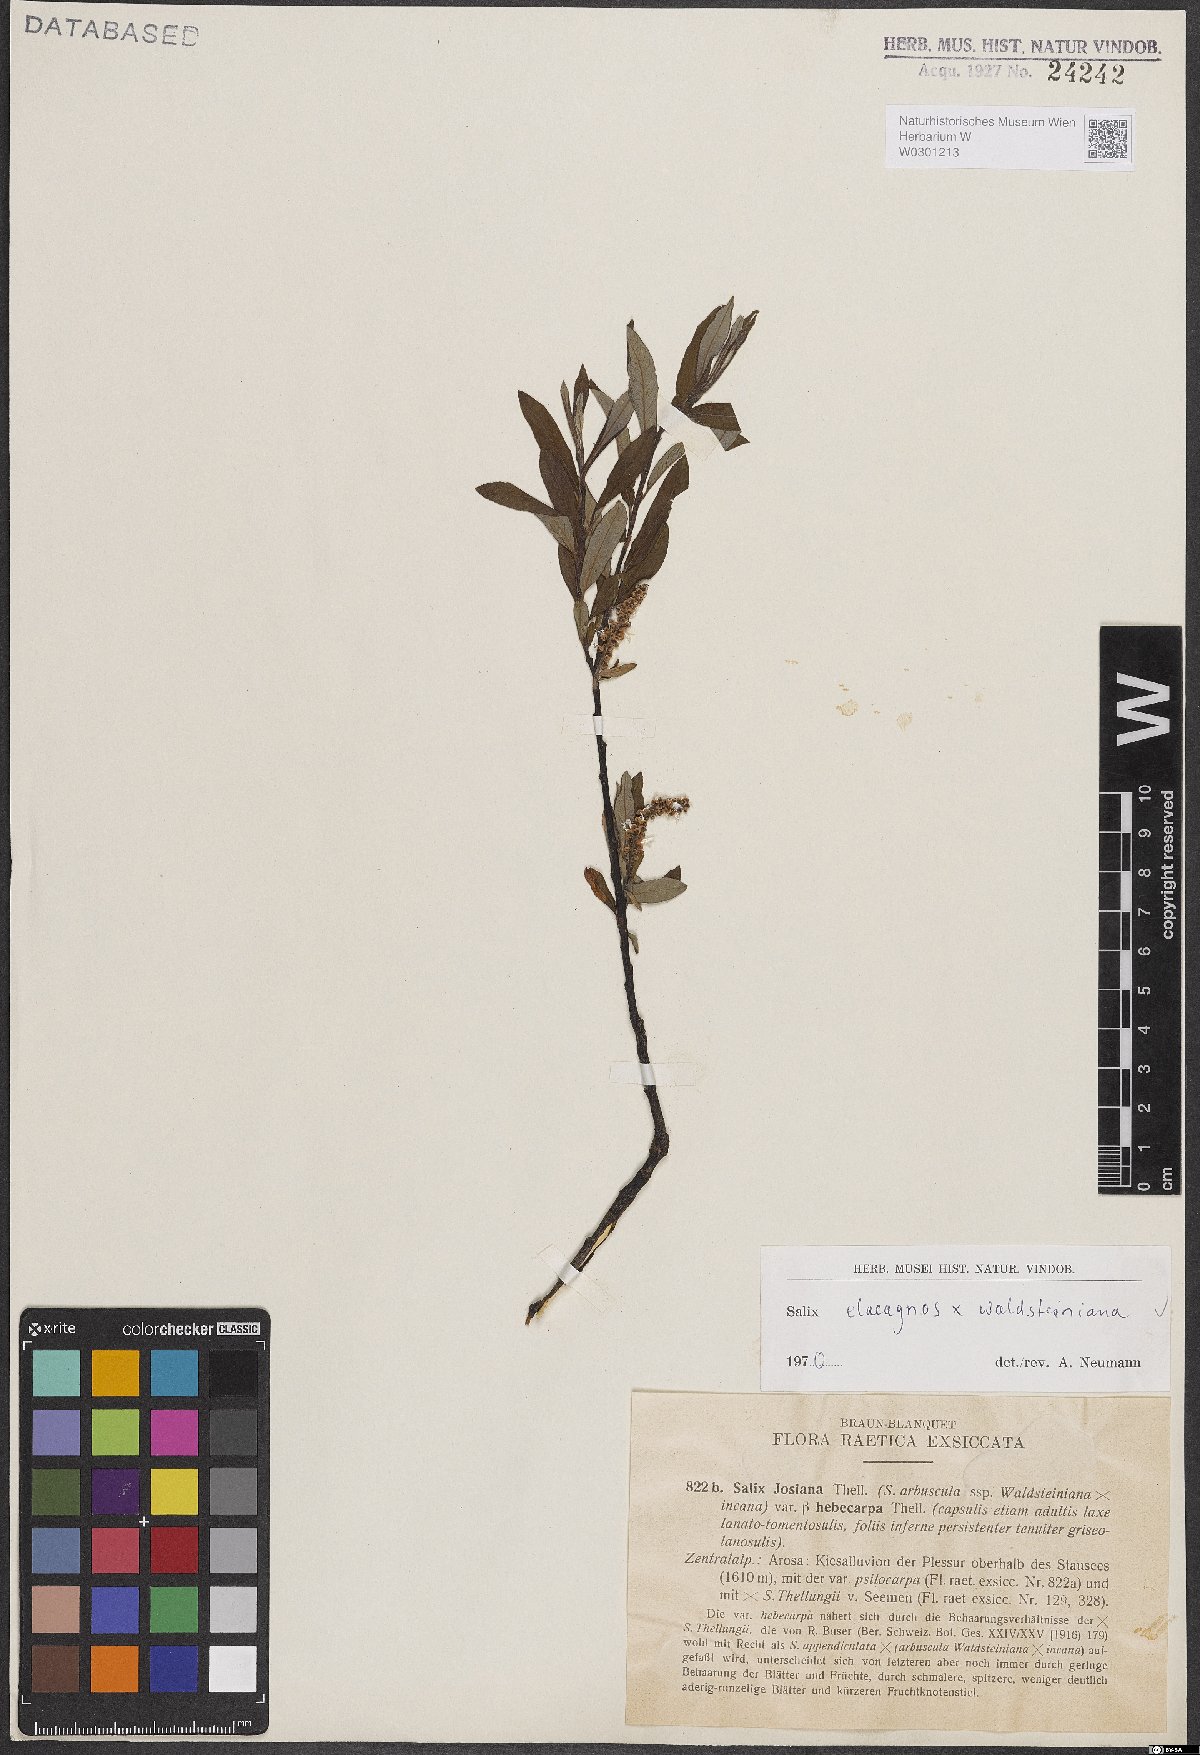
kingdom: Plantae
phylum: Tracheophyta
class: Magnoliopsida
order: Malpighiales
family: Salicaceae
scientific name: Salicaceae
